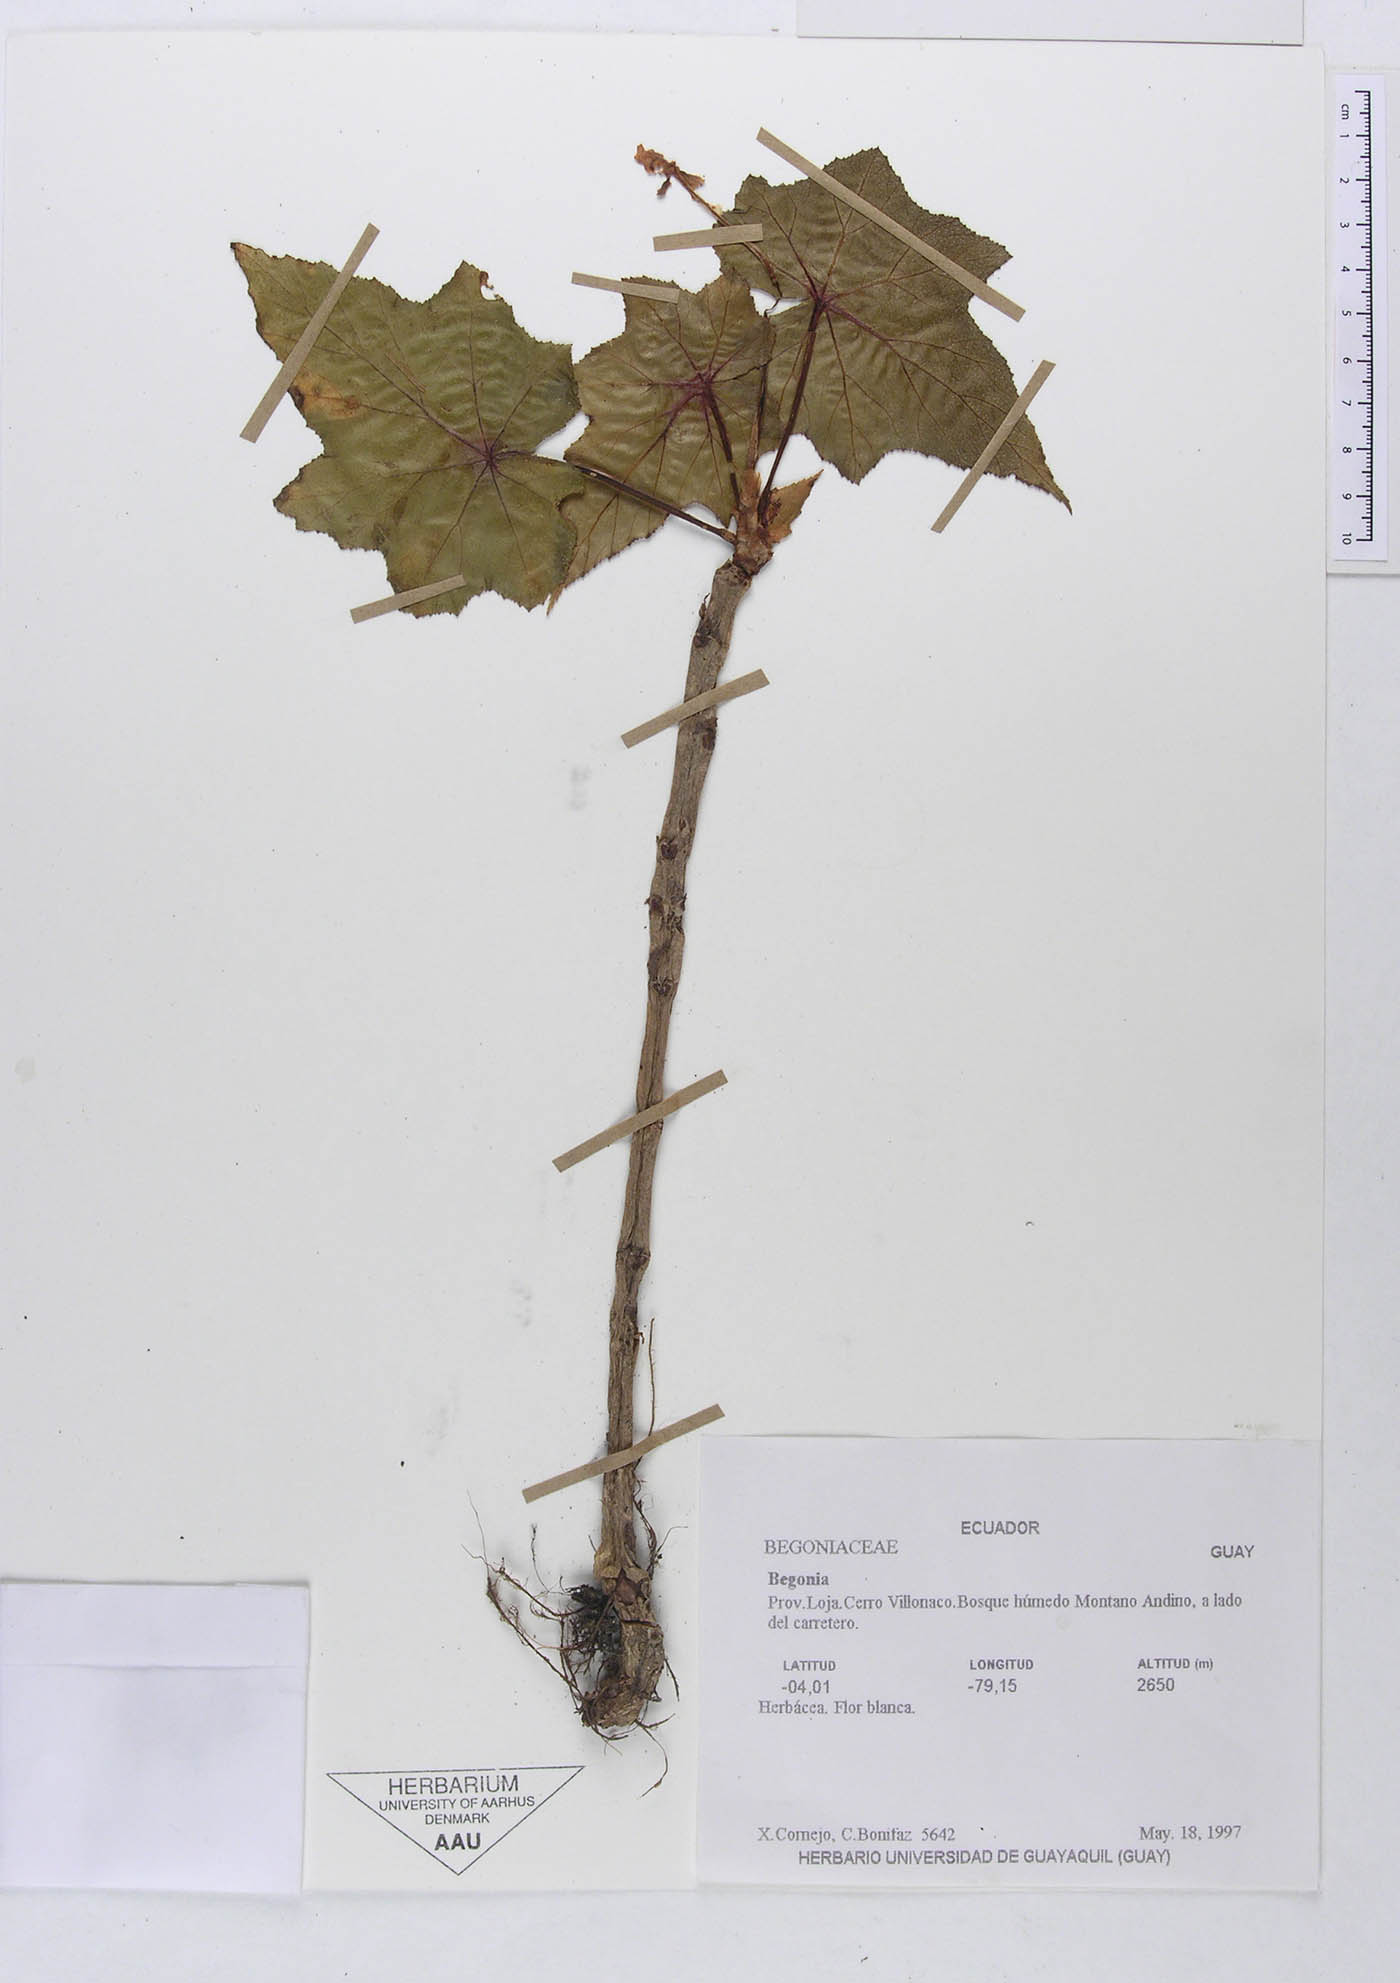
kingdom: Plantae
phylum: Tracheophyta
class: Magnoliopsida
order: Cucurbitales
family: Begoniaceae
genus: Begonia
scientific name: Begonia acerifolia
